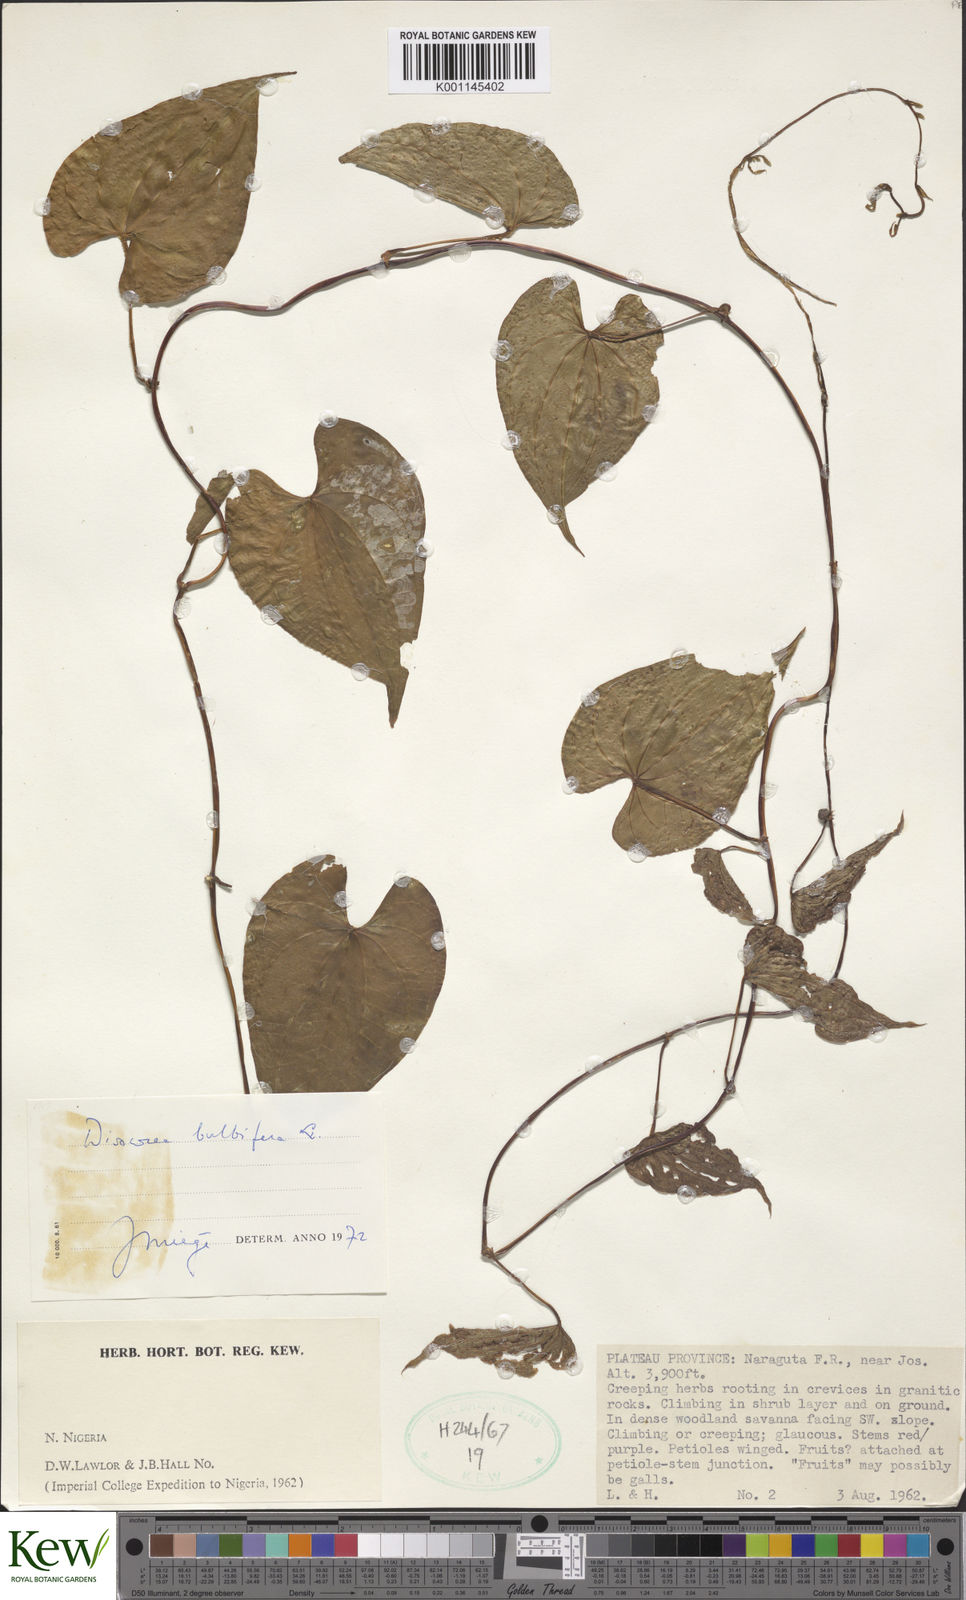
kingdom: Plantae
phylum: Tracheophyta
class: Liliopsida
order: Dioscoreales
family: Dioscoreaceae
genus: Dioscorea
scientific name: Dioscorea bulbifera
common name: Air yam
